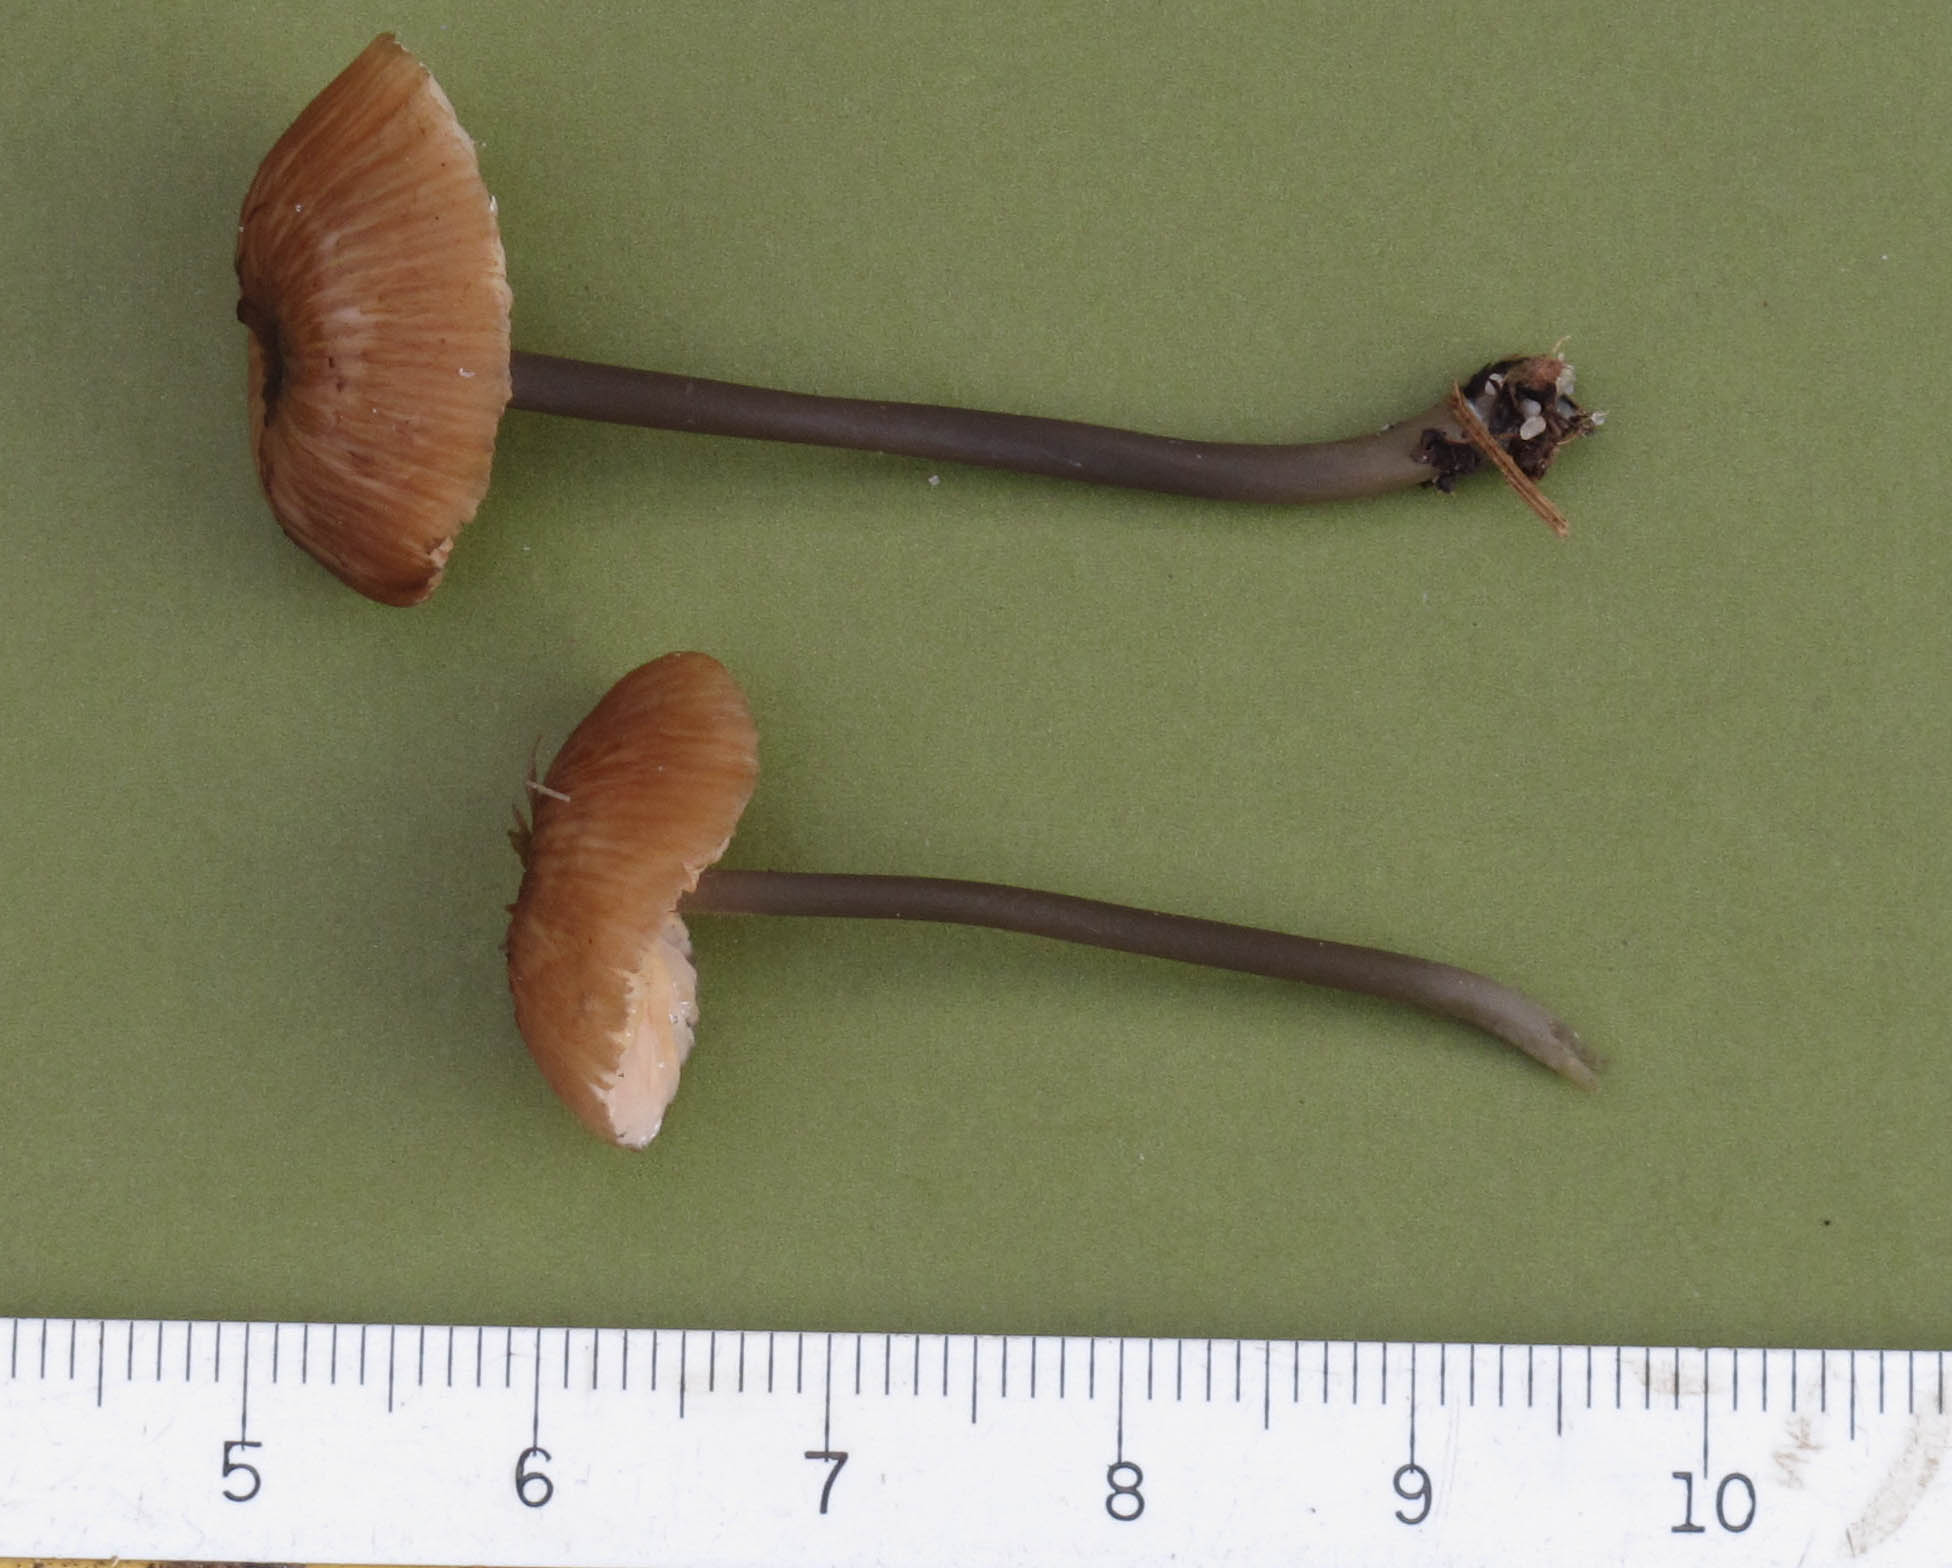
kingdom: Fungi
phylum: Basidiomycota
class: Agaricomycetes
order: Agaricales
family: Entolomataceae
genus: Entoloma
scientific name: Entoloma lividocyanulum
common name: mørkøjet rødblad
